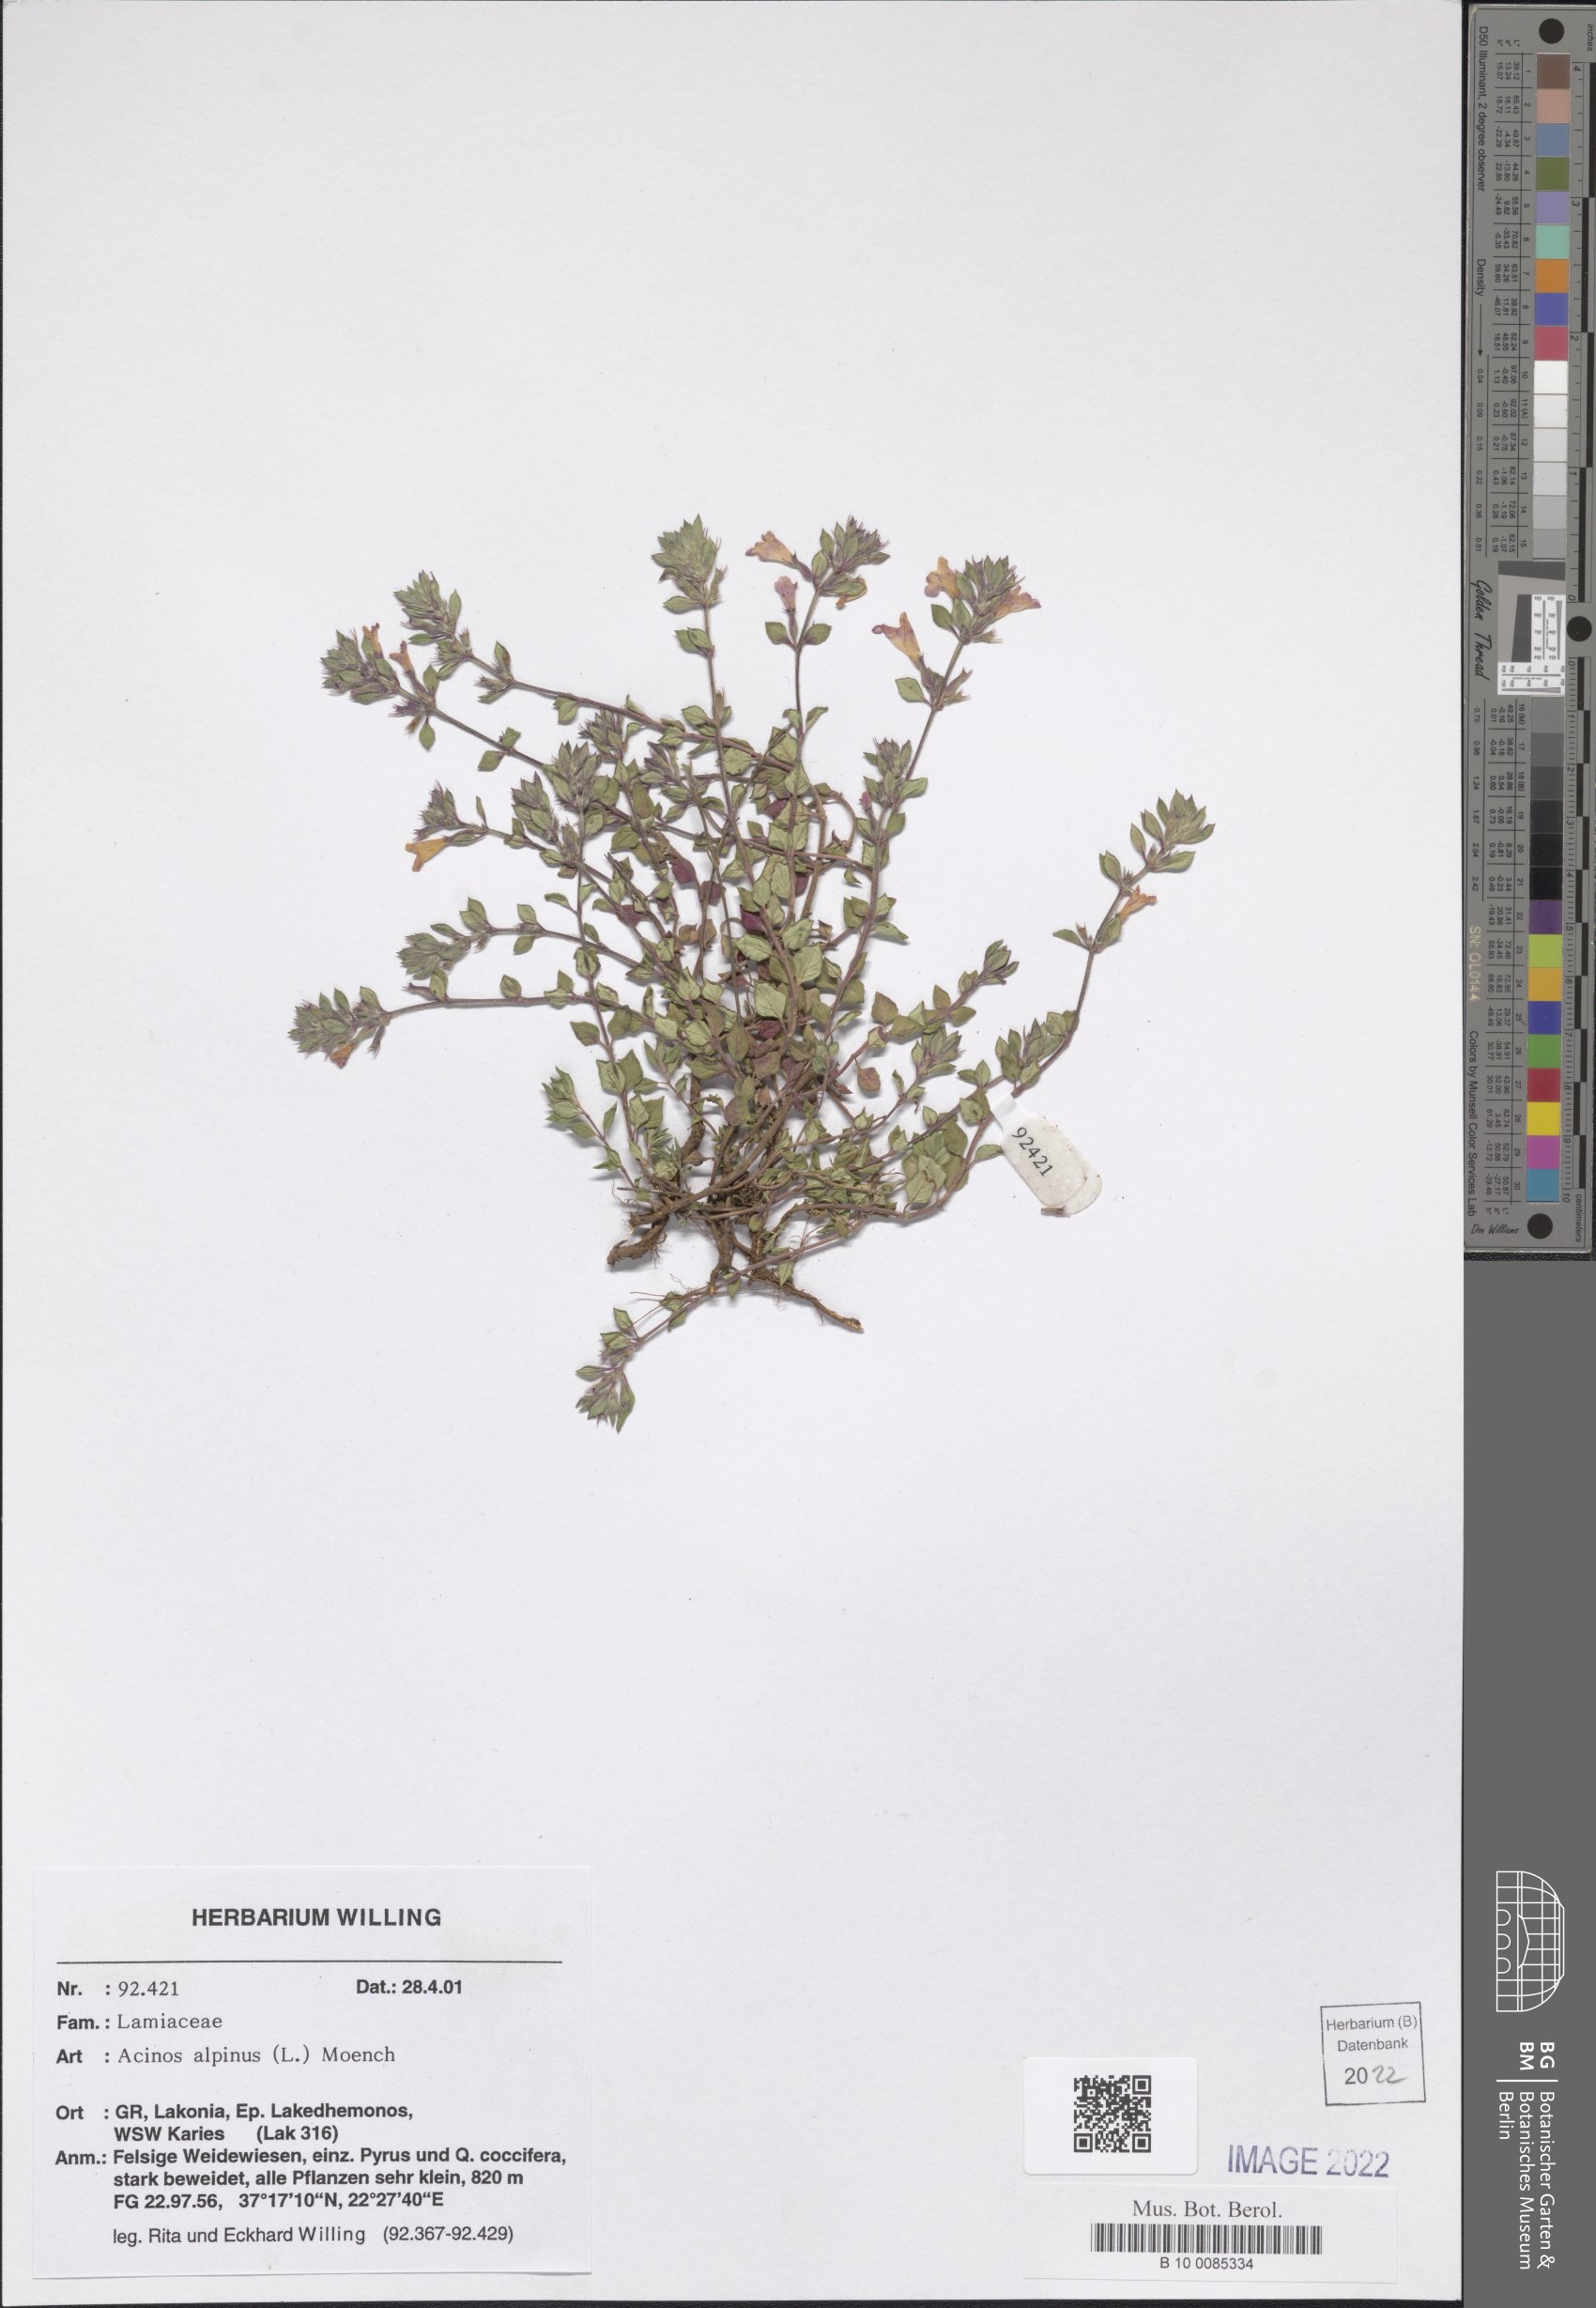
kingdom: Plantae
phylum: Tracheophyta
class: Magnoliopsida
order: Lamiales
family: Lamiaceae
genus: Clinopodium
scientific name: Clinopodium alpinum
